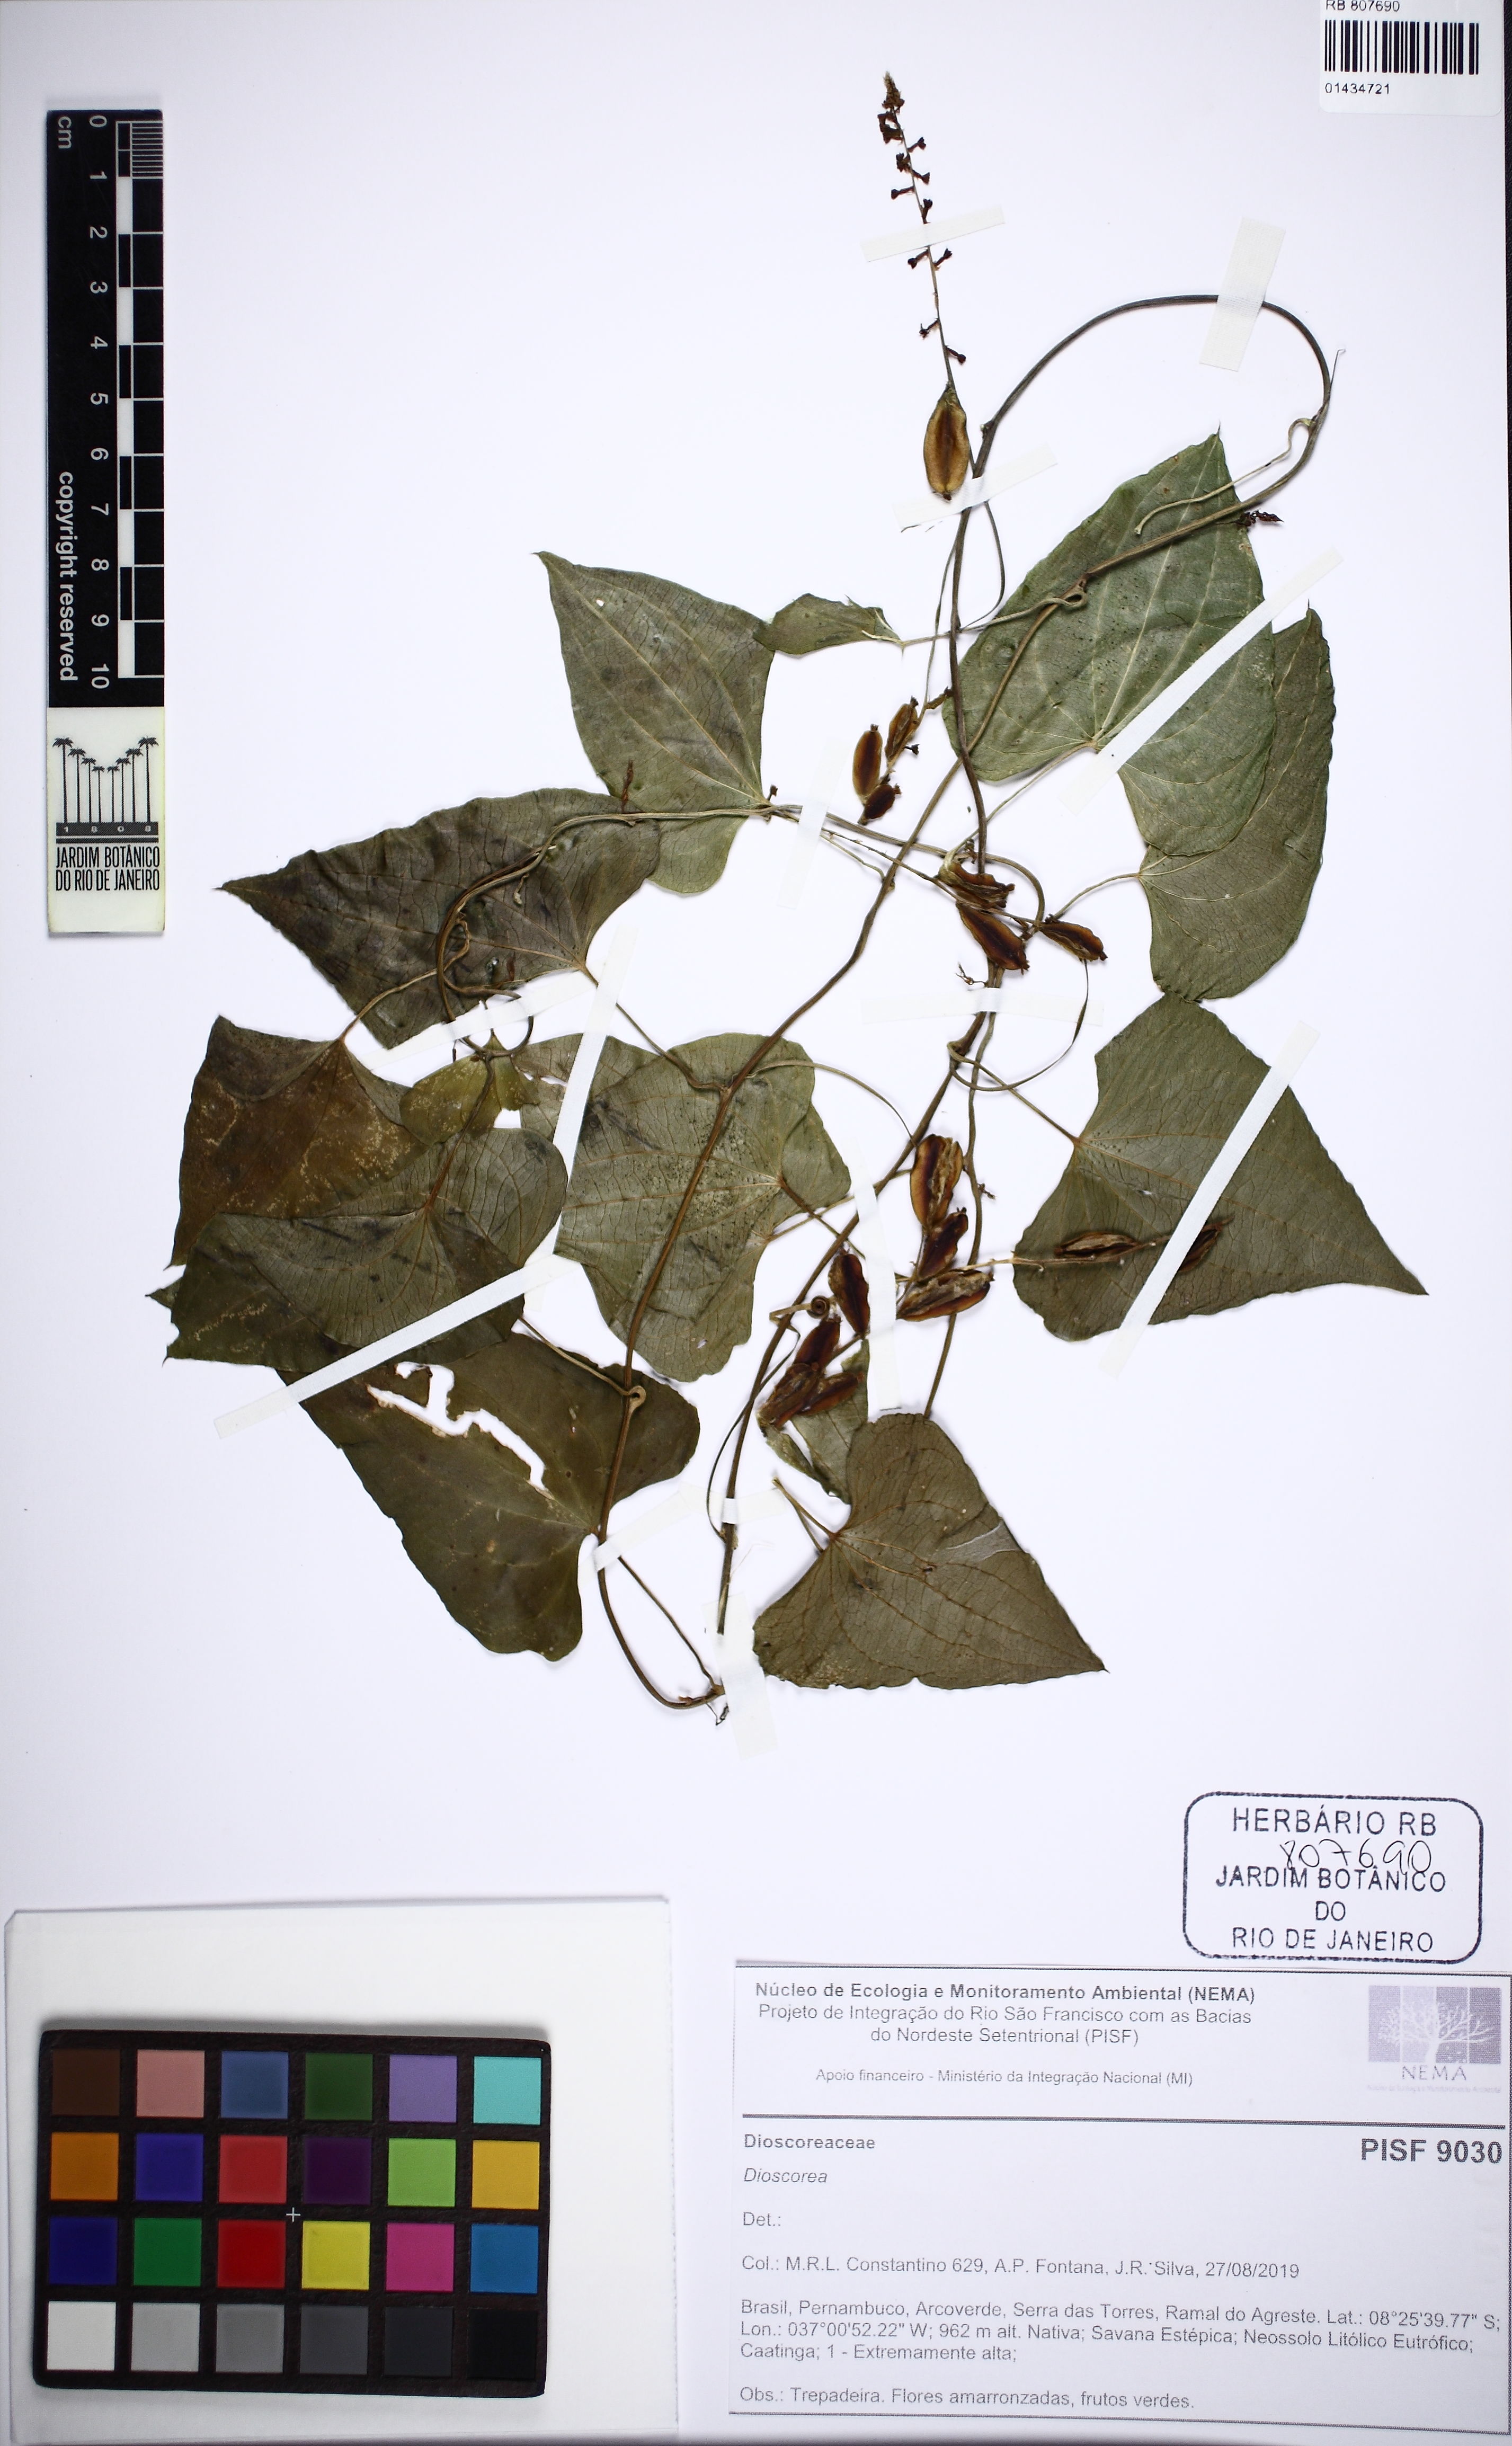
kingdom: Plantae
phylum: Tracheophyta
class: Liliopsida
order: Dioscoreales
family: Dioscoreaceae
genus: Dioscorea
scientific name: Dioscorea marginata
